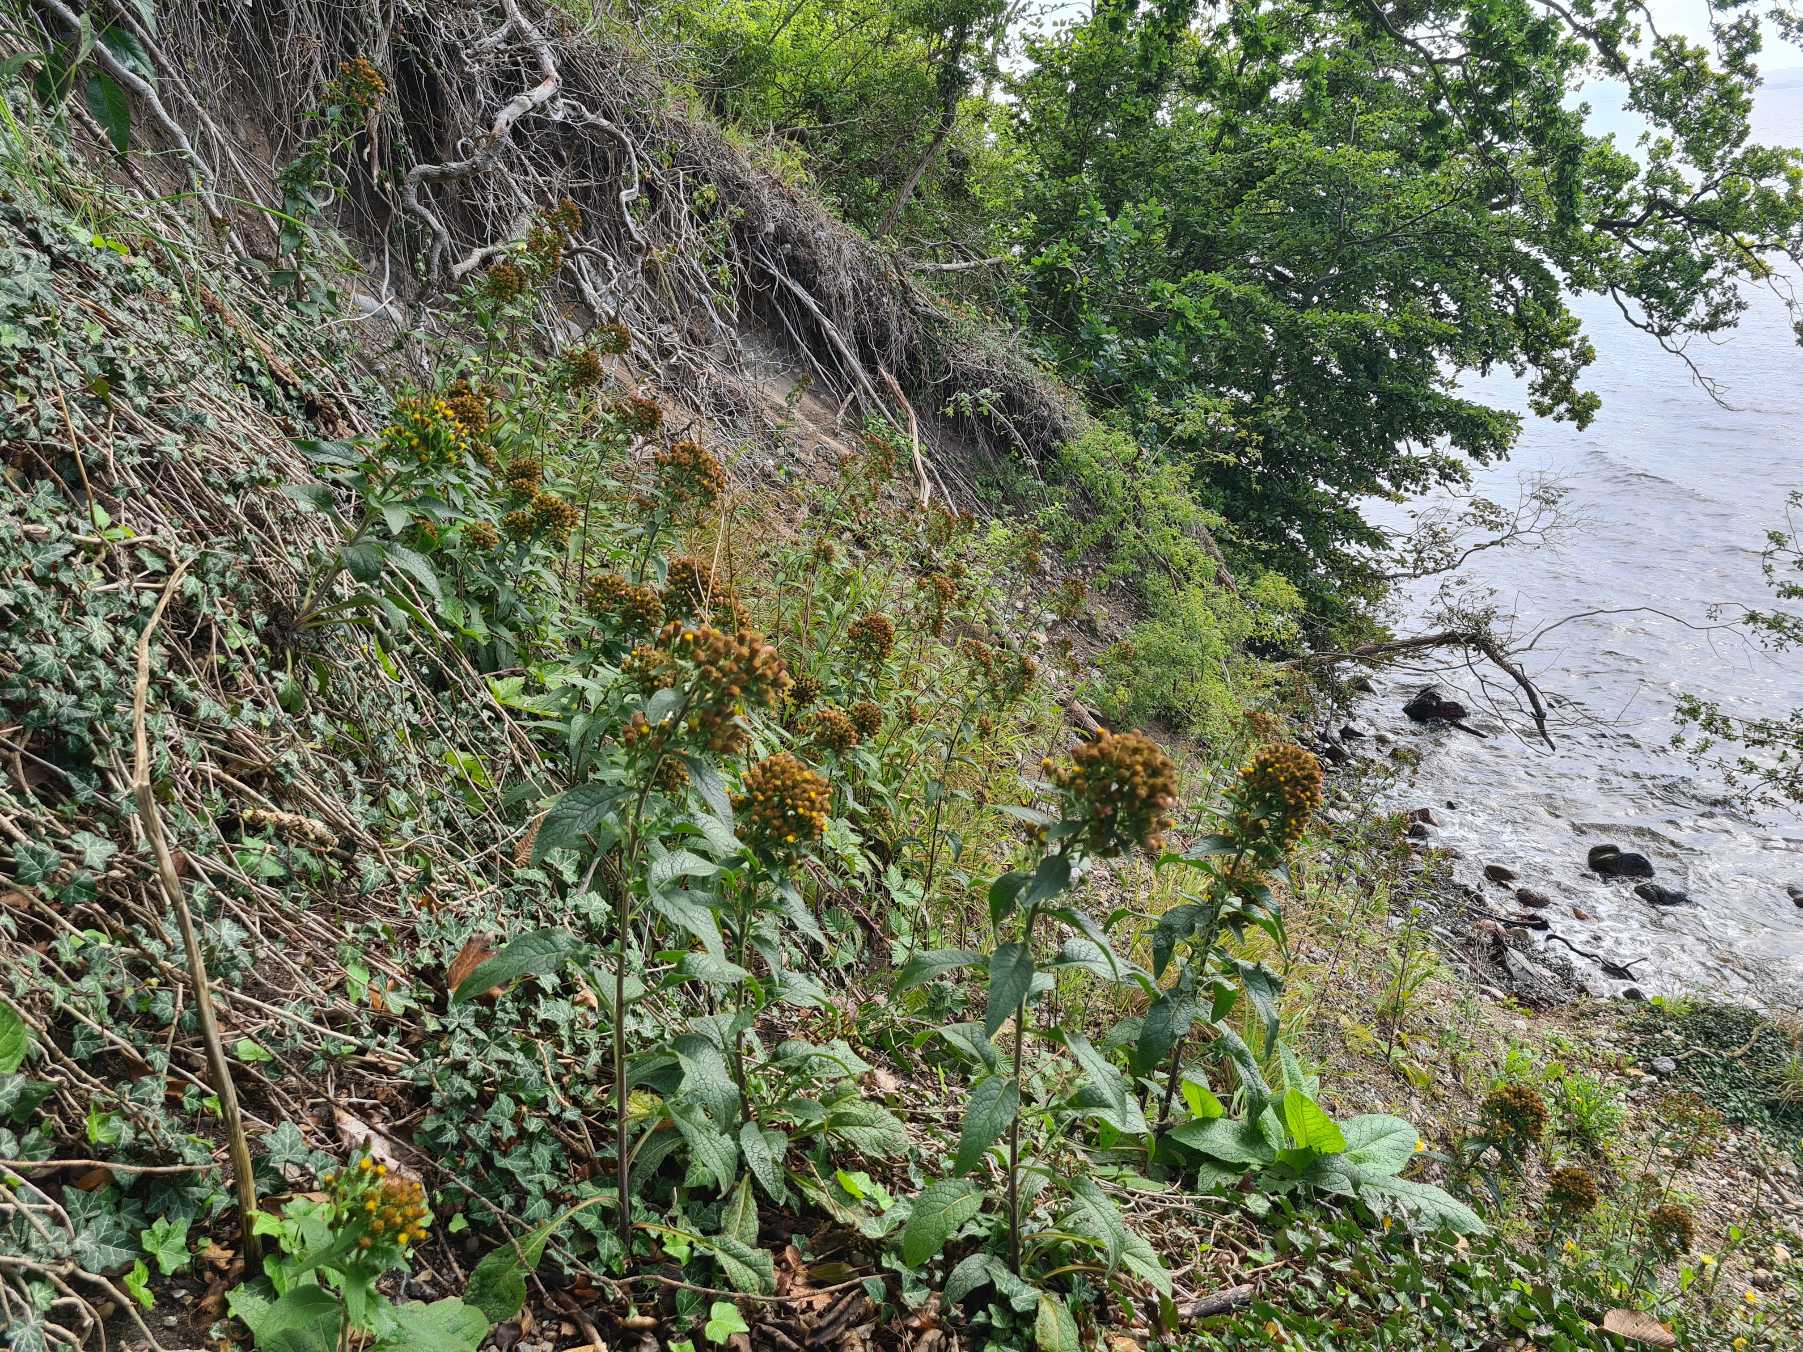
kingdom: Plantae
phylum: Tracheophyta
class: Magnoliopsida
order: Asterales
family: Asteraceae
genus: Pentanema
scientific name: Pentanema squarrosum
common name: Trekløft-alant
